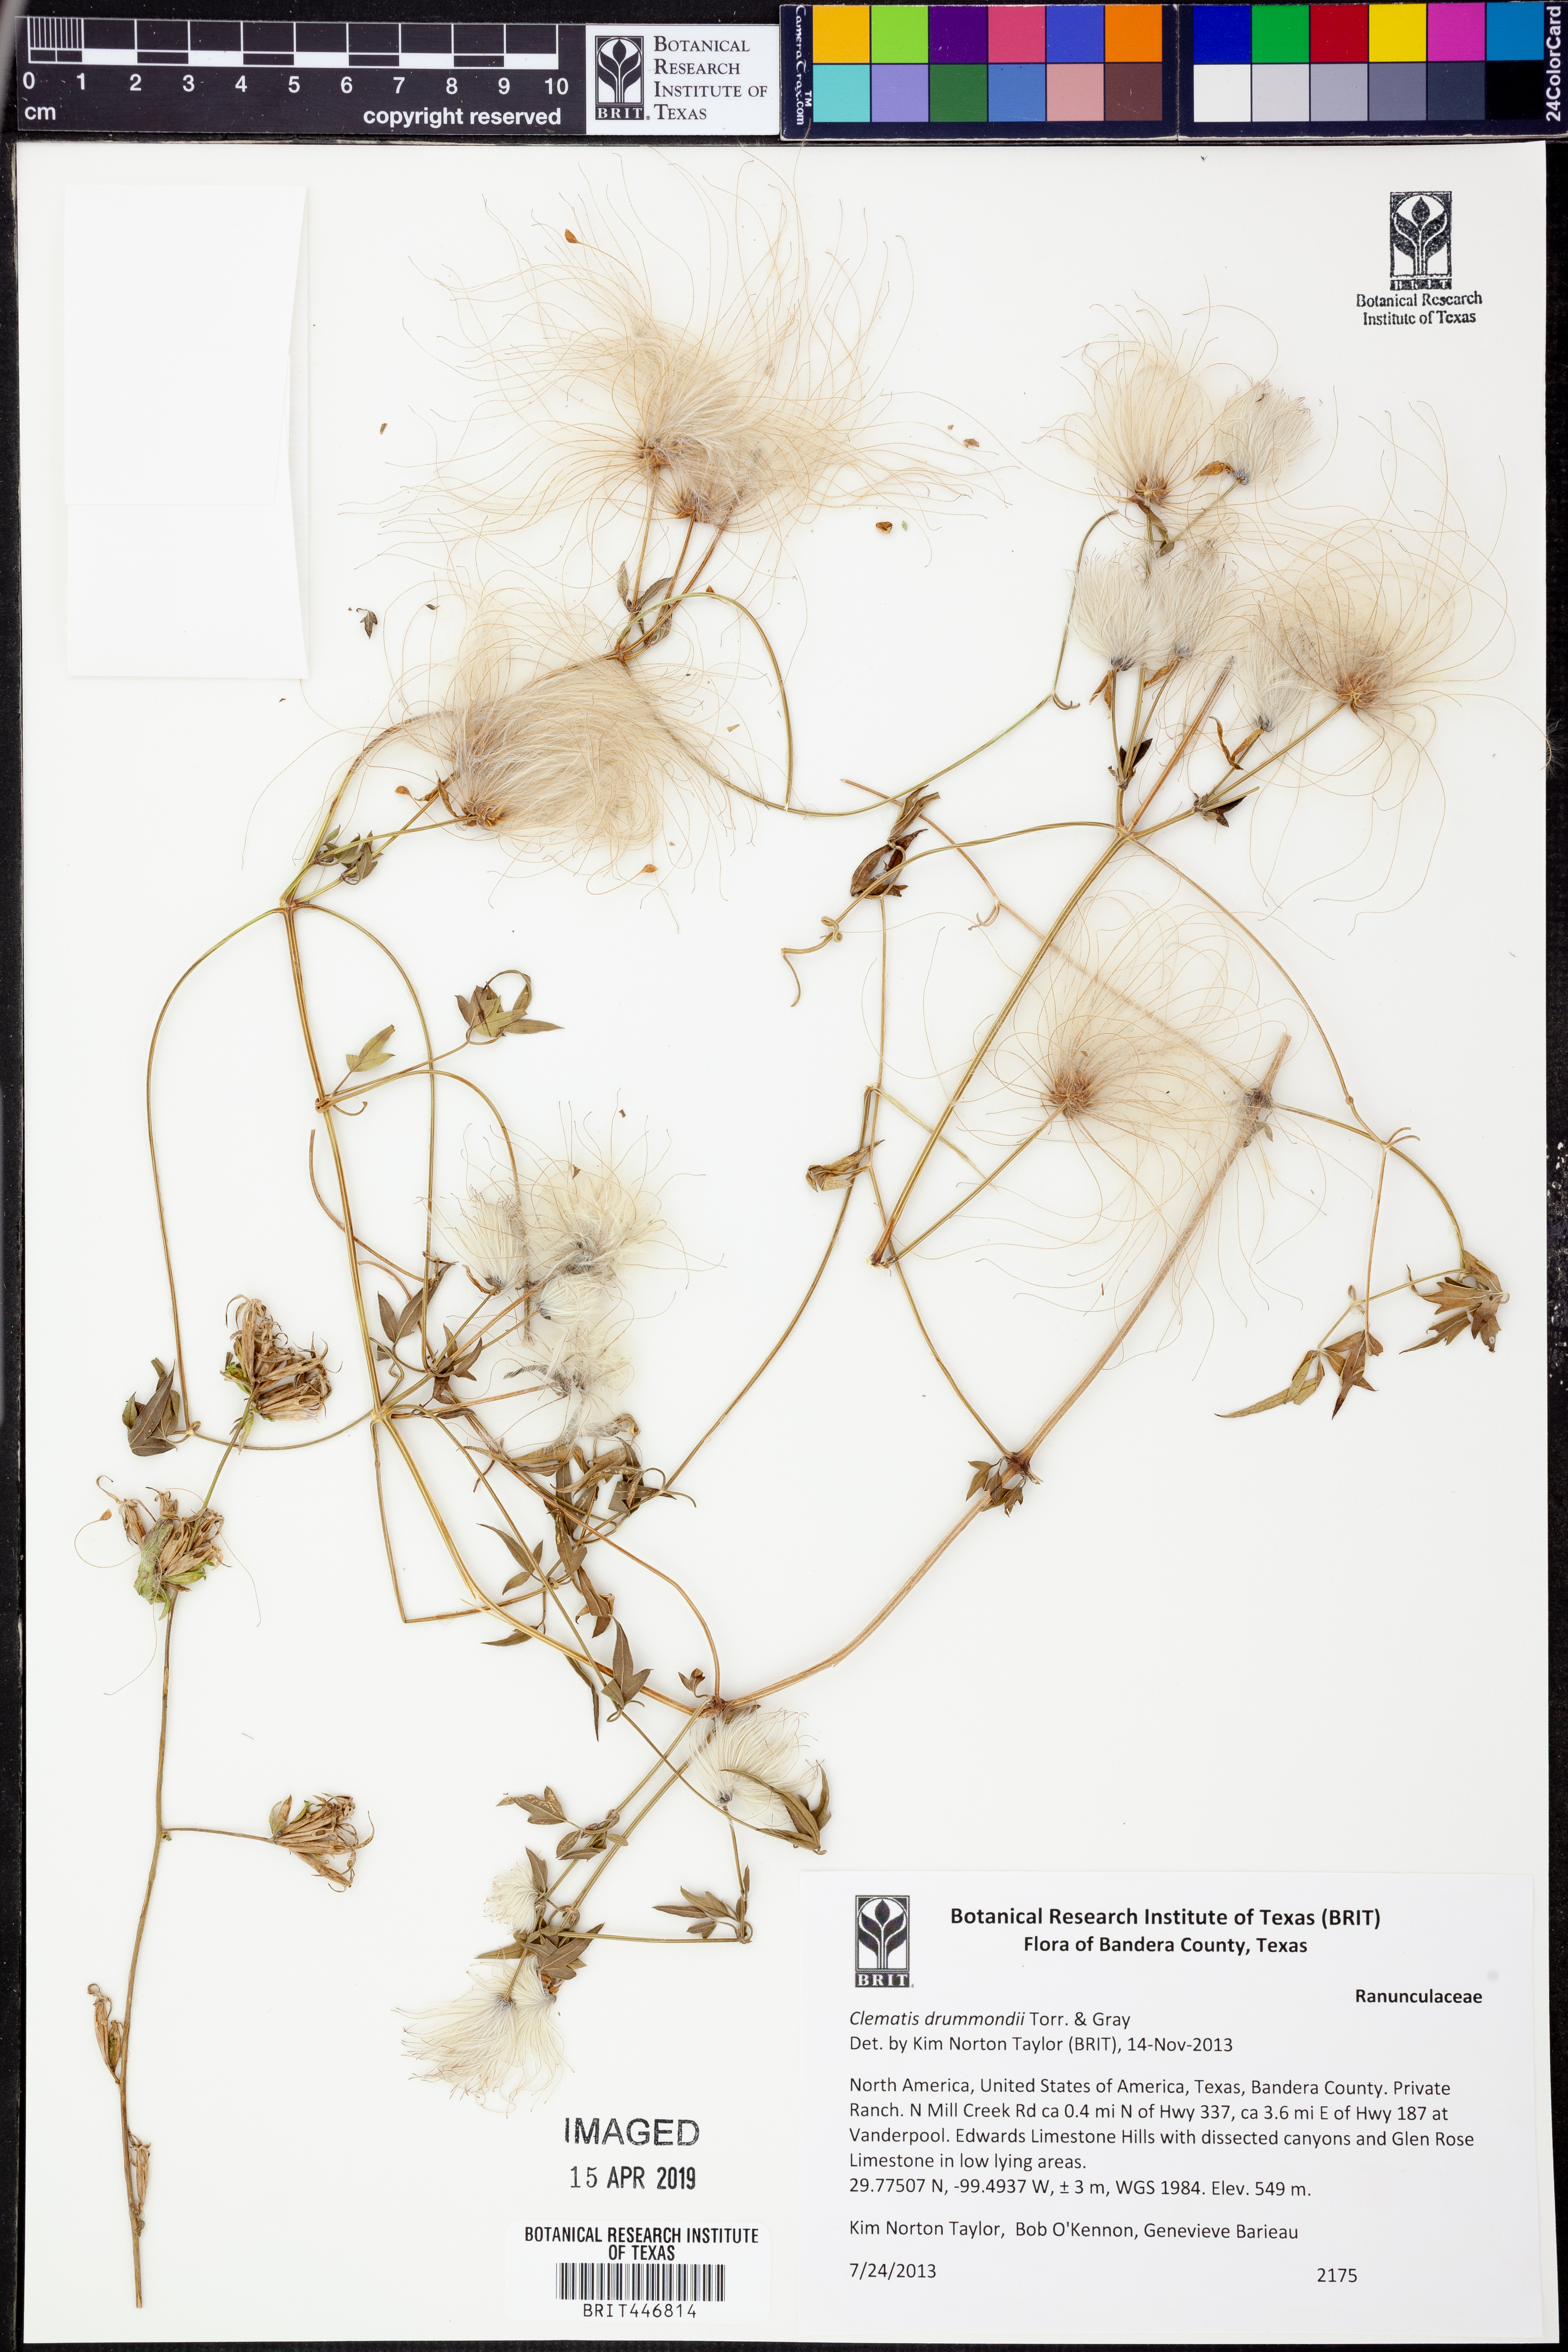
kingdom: Plantae
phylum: Tracheophyta
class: Magnoliopsida
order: Ranunculales
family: Ranunculaceae
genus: Clematis
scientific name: Clematis drummondii
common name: Texas virgin's bower
